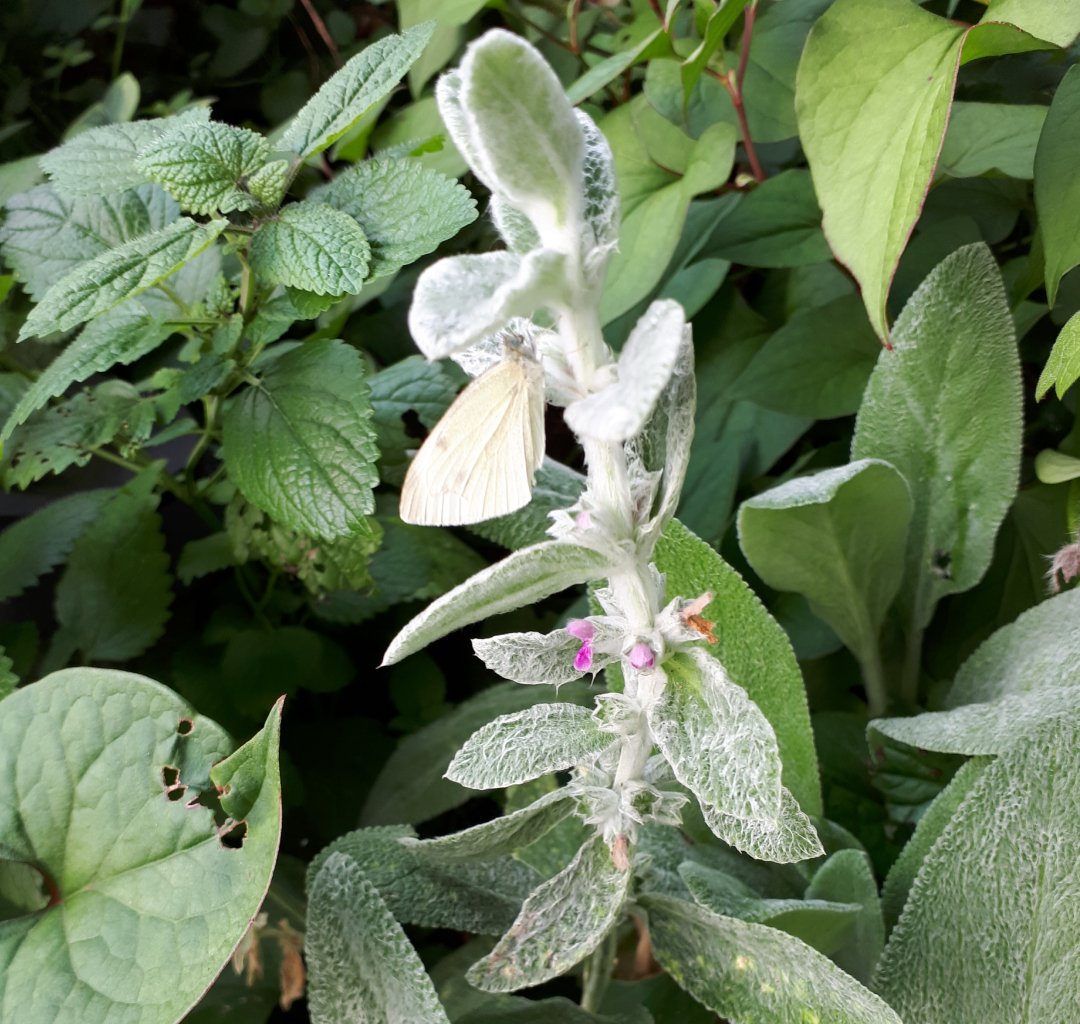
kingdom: Animalia
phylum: Arthropoda
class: Insecta
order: Lepidoptera
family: Pieridae
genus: Pieris
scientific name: Pieris rapae
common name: Cabbage White
